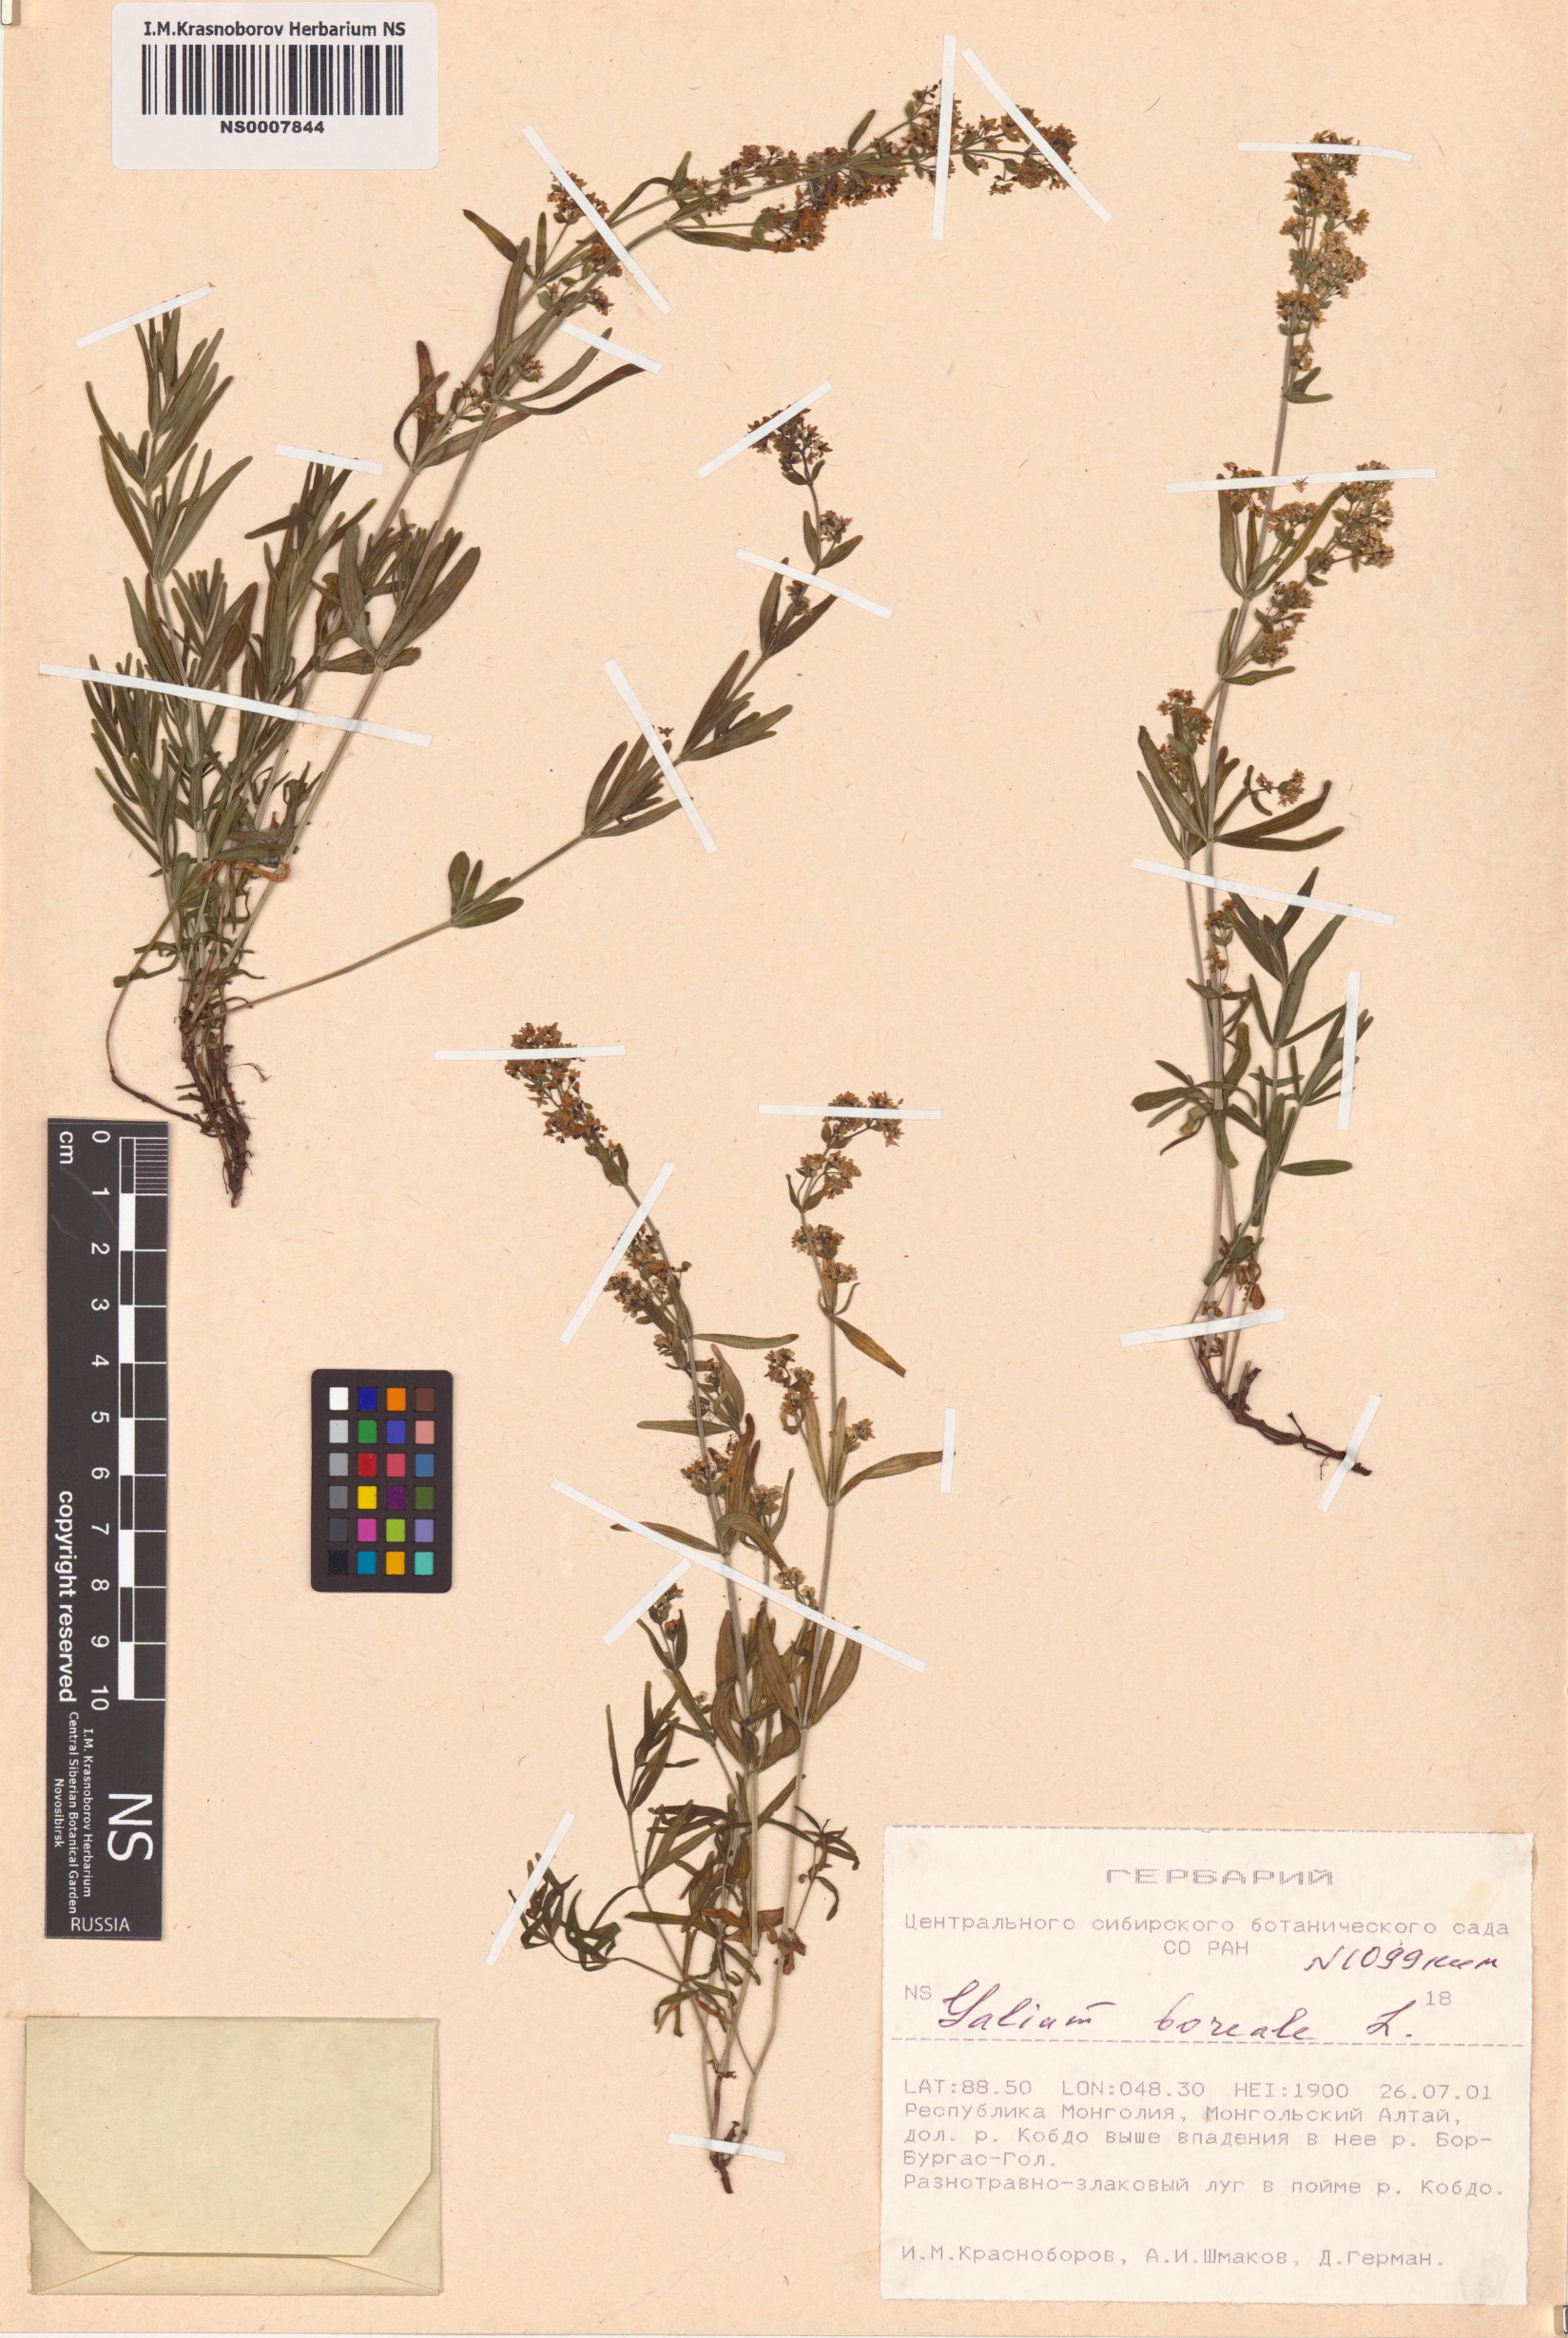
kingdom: Plantae
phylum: Tracheophyta
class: Magnoliopsida
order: Gentianales
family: Rubiaceae
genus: Galium
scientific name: Galium boreale
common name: Northern bedstraw
